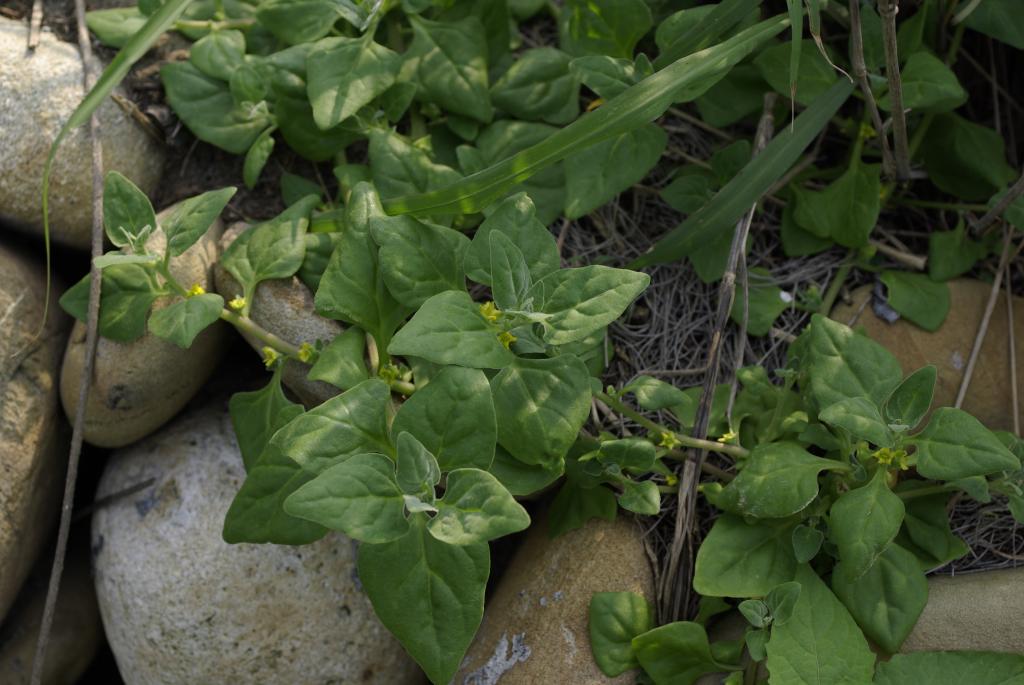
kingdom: Plantae
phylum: Tracheophyta
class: Magnoliopsida
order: Caryophyllales
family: Aizoaceae
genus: Tetragonia
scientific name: Tetragonia tetragonoides
